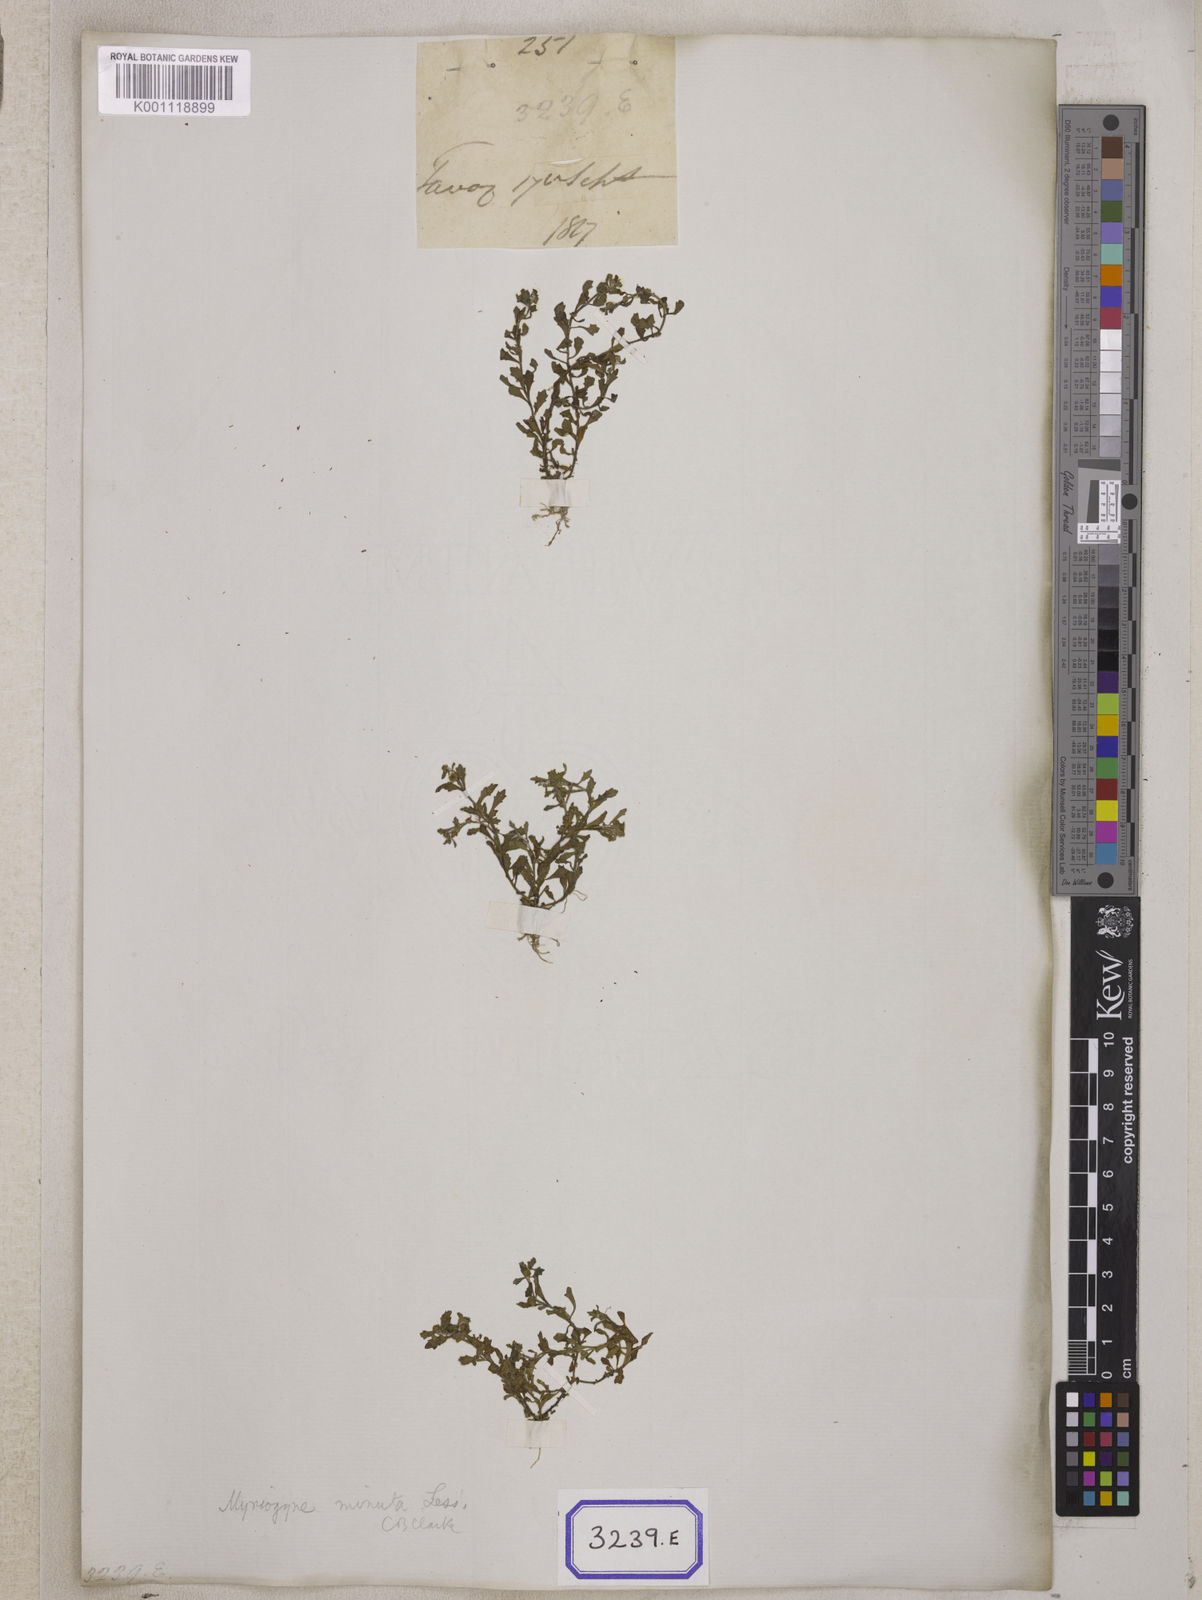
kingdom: Plantae
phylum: Tracheophyta
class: Magnoliopsida
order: Asterales
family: Asteraceae
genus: Cotula
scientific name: Cotula
